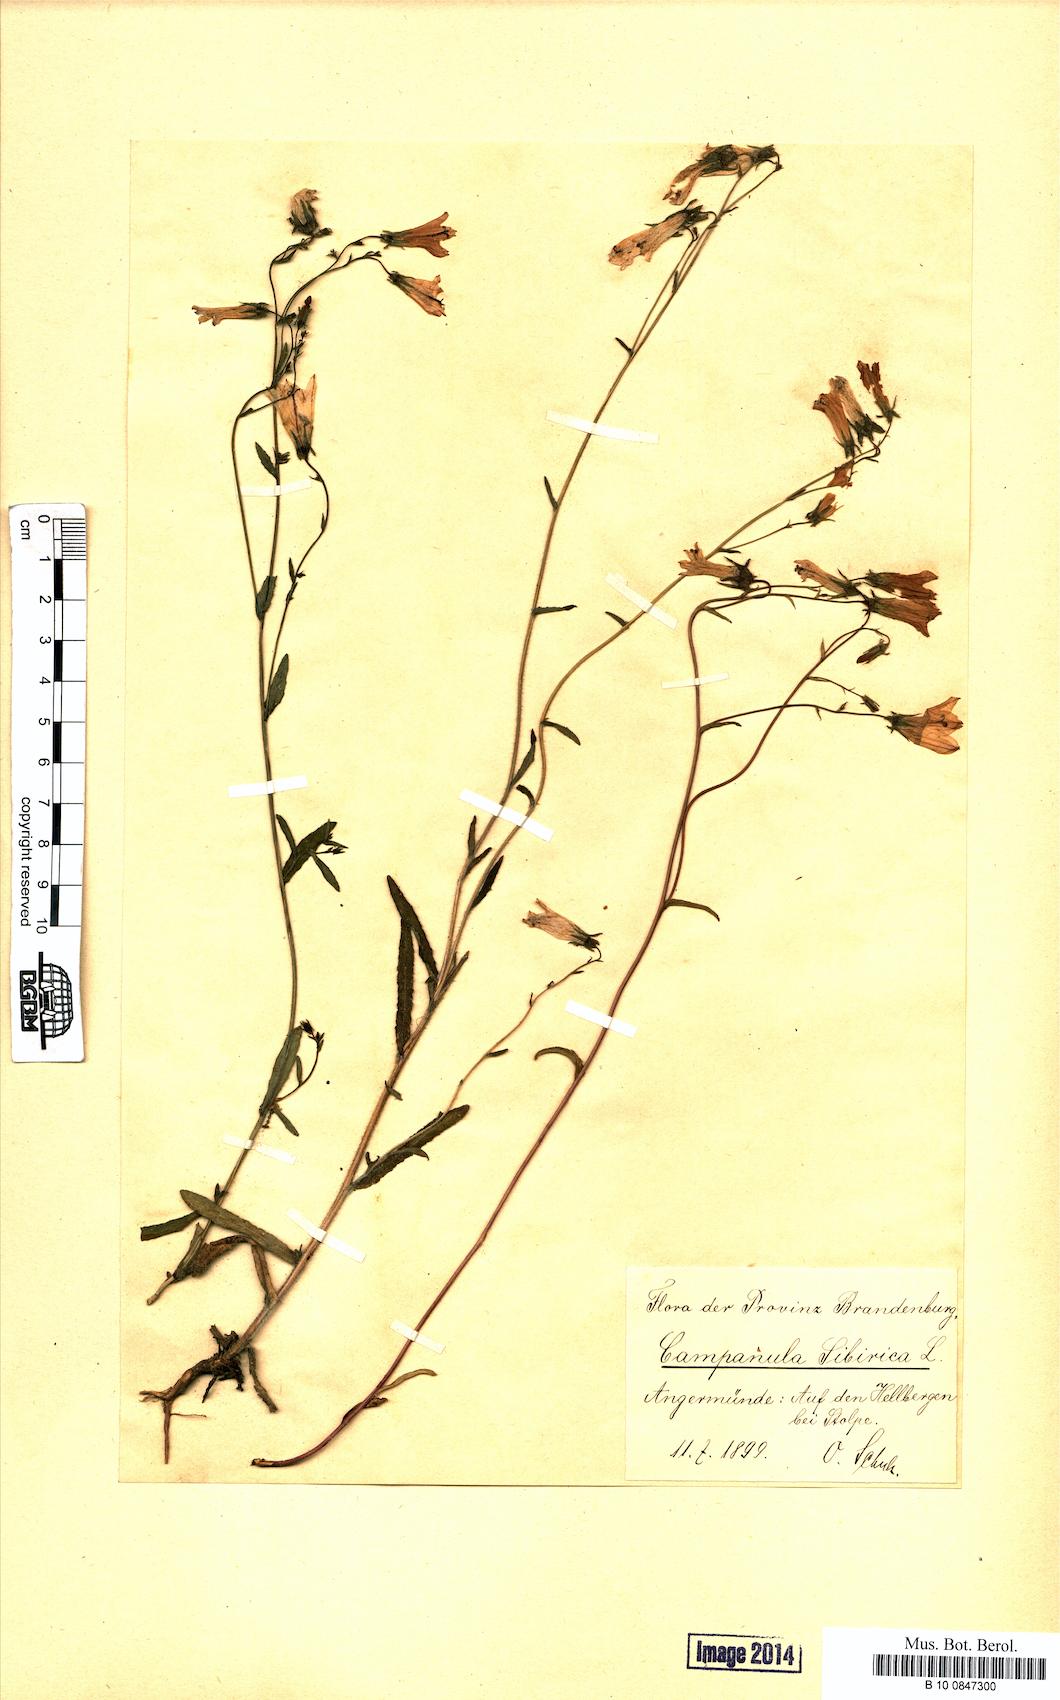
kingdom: Plantae
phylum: Tracheophyta
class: Magnoliopsida
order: Asterales
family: Campanulaceae
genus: Campanula
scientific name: Campanula sibirica
